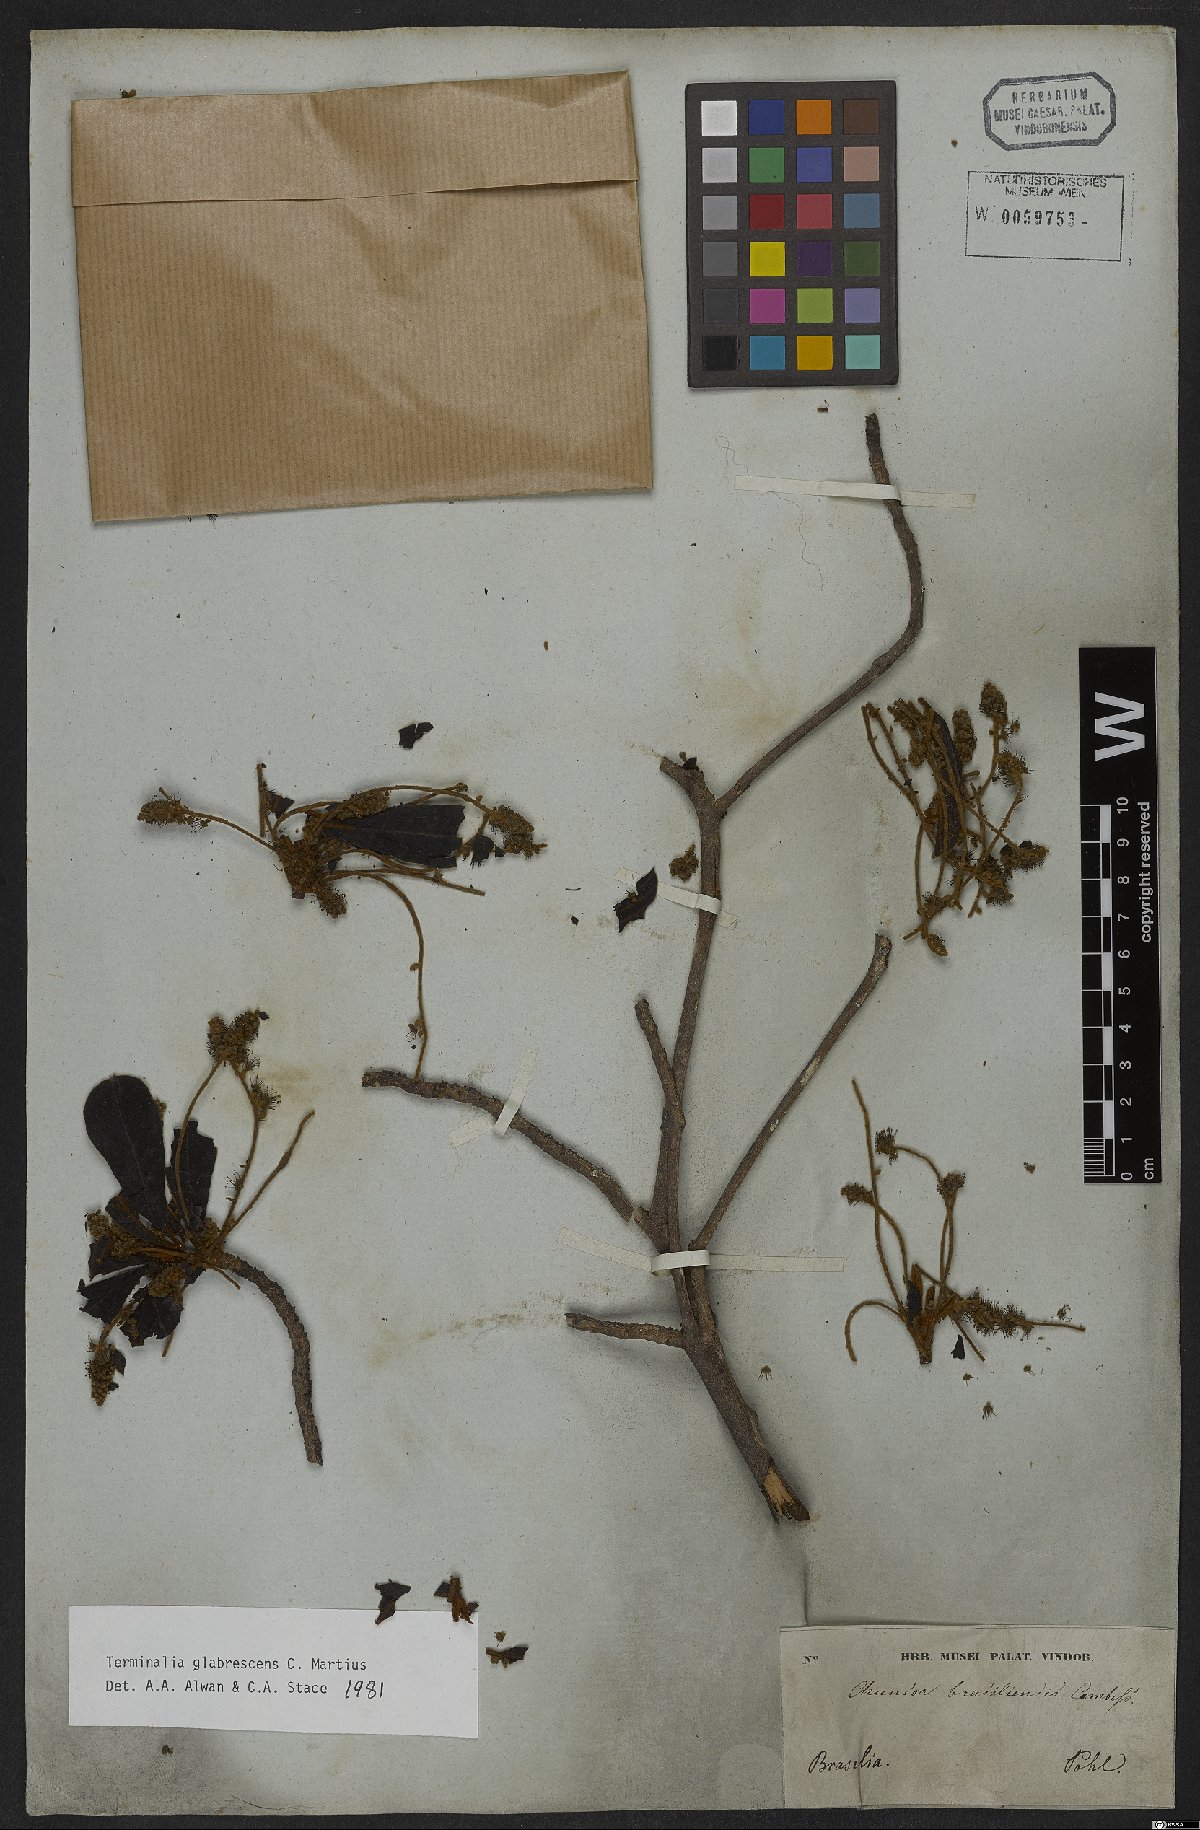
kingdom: Plantae
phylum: Tracheophyta
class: Magnoliopsida
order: Myrtales
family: Combretaceae
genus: Terminalia
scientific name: Terminalia glabrescens
